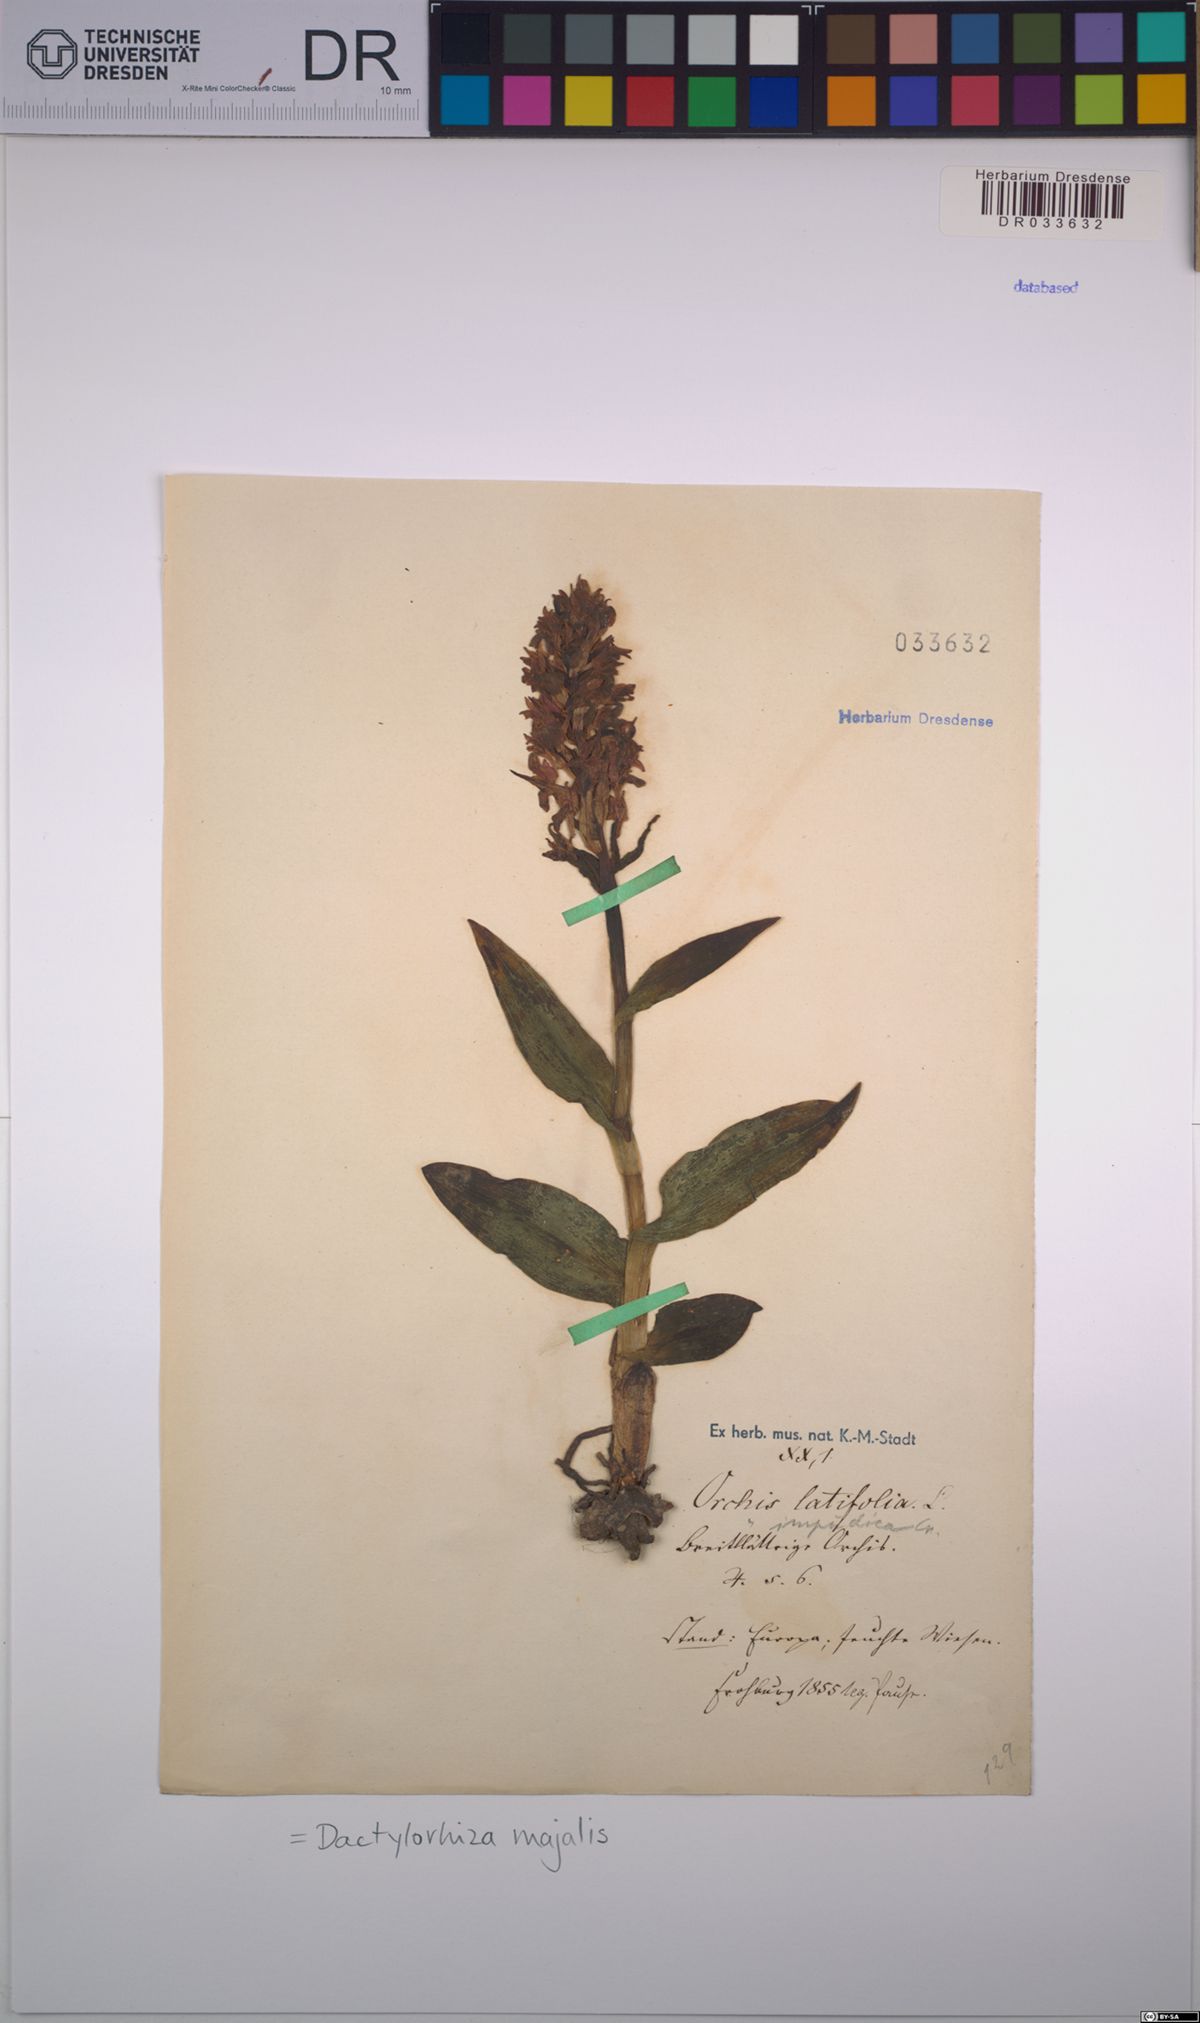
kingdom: Plantae
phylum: Tracheophyta
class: Liliopsida
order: Asparagales
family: Orchidaceae
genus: Dactylorhiza
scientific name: Dactylorhiza majalis
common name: Marsh orchid
